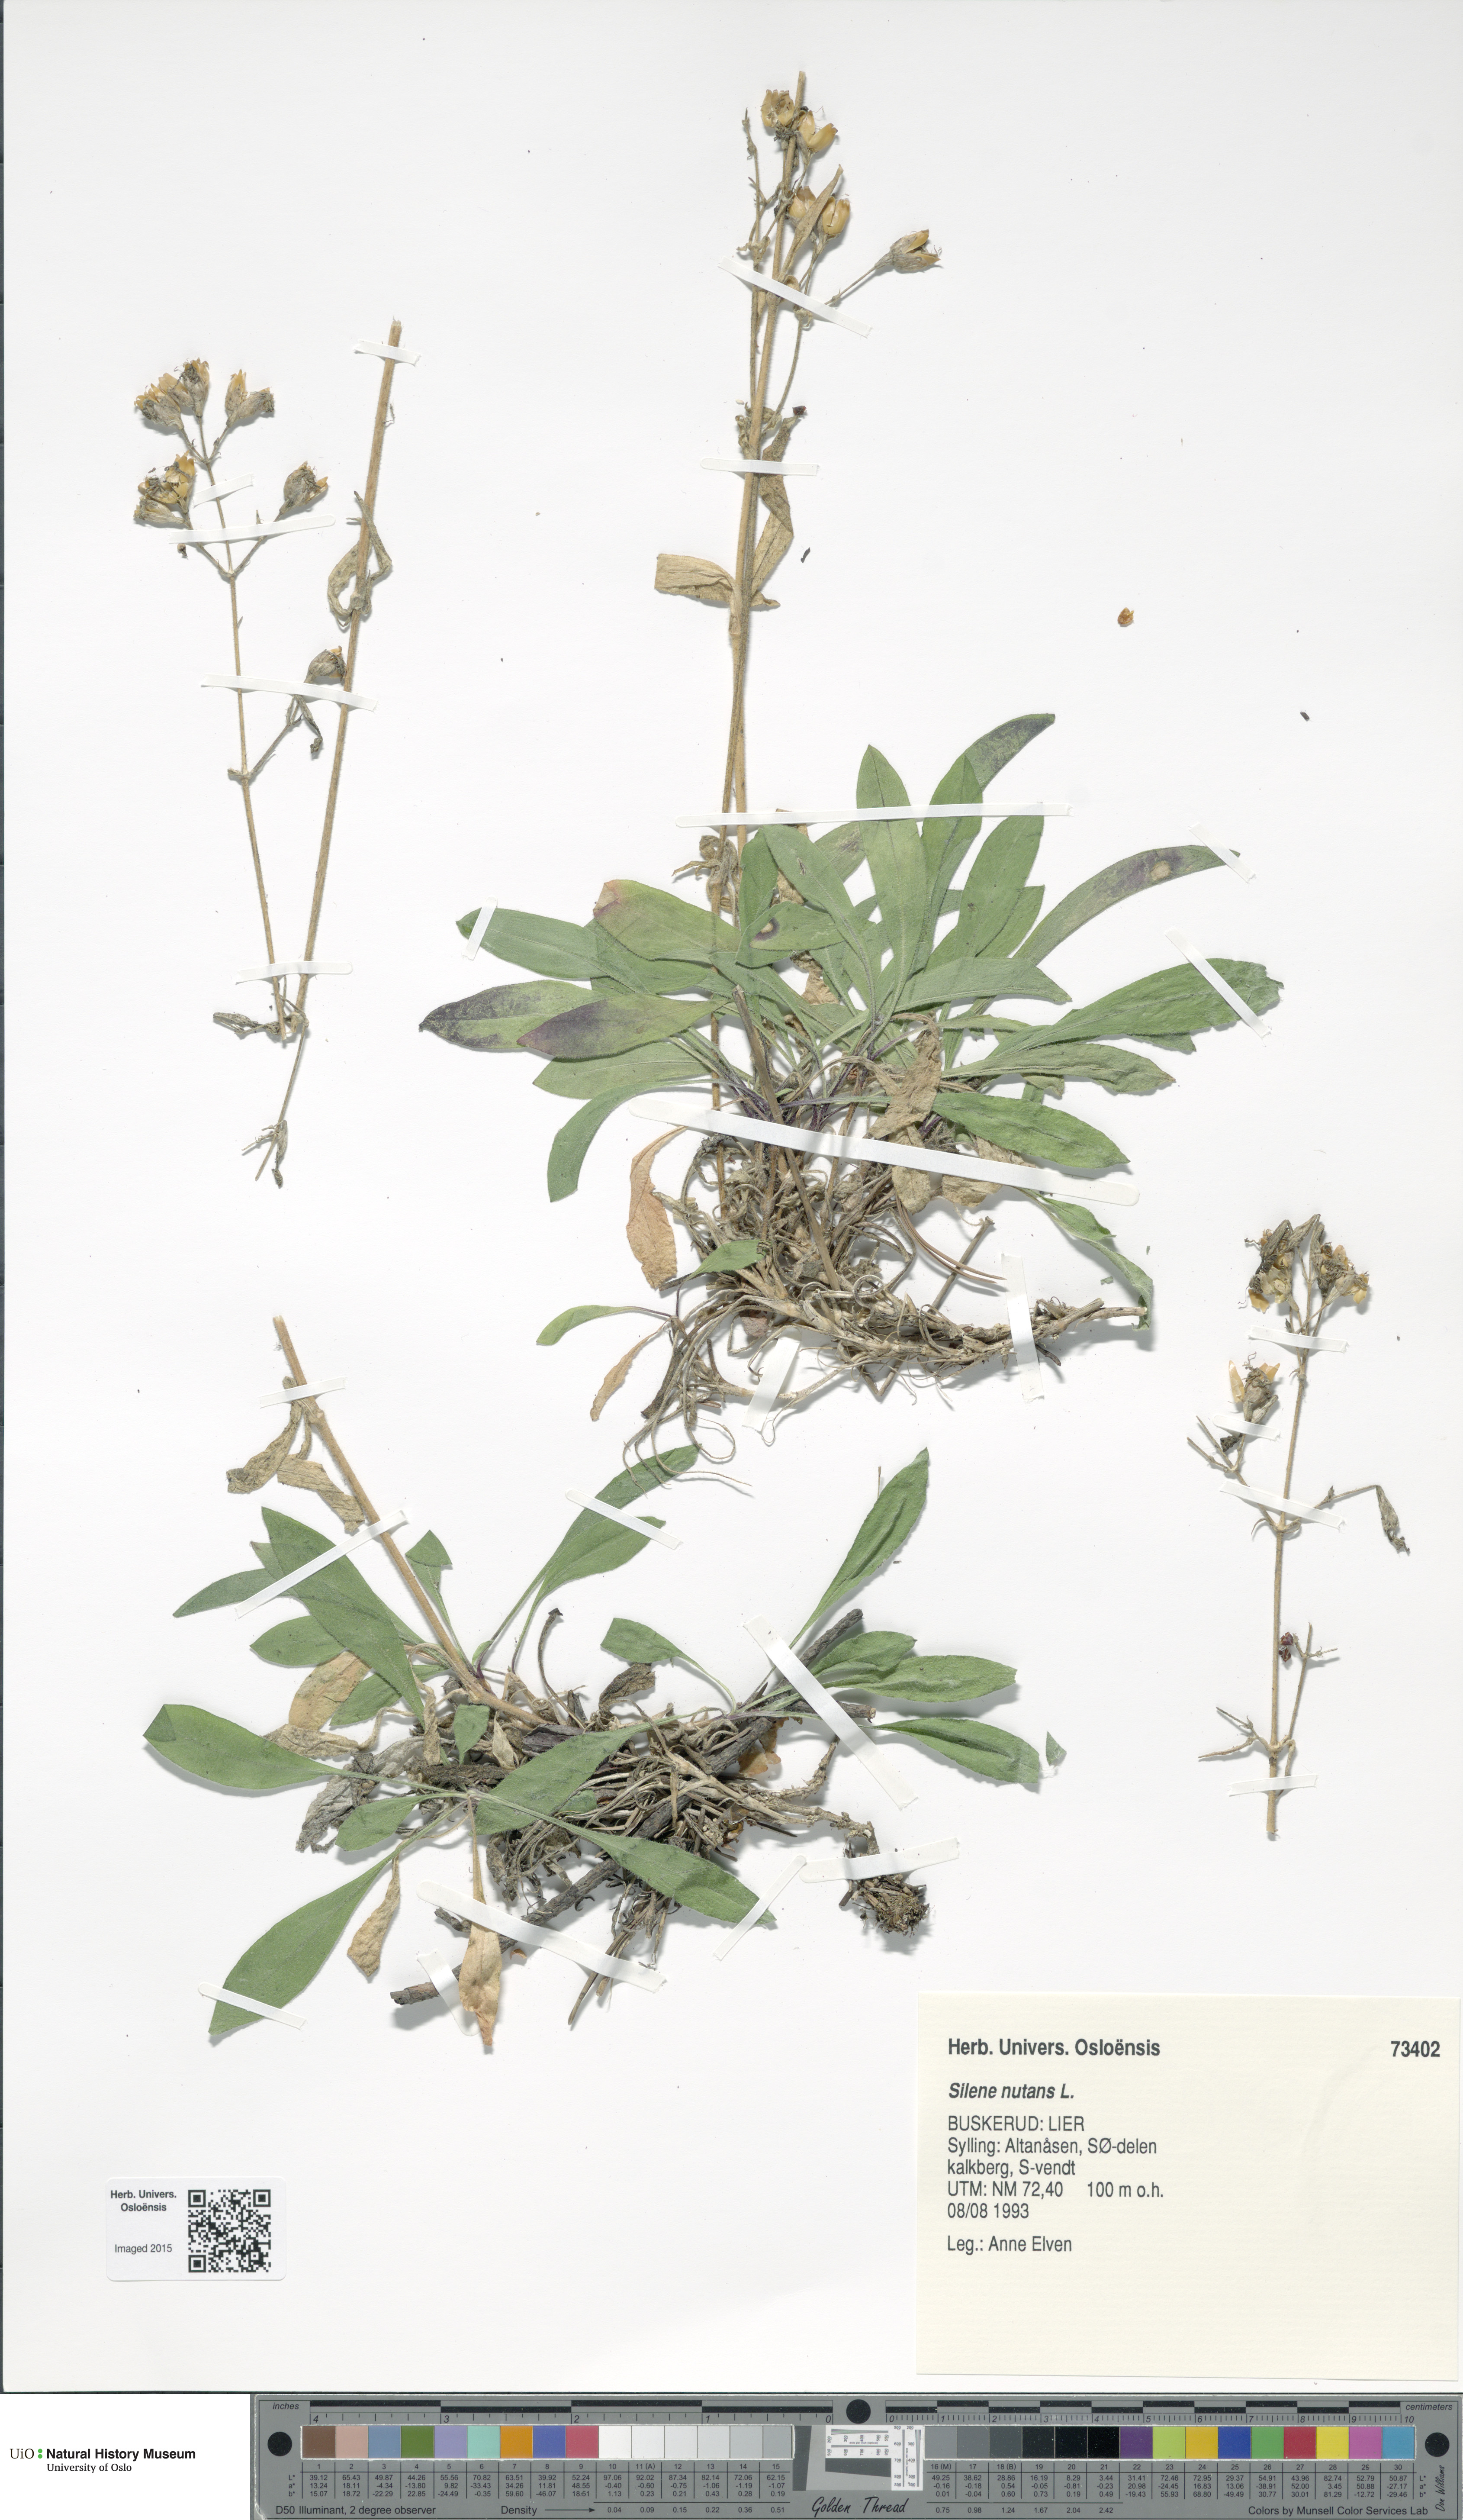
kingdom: Plantae
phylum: Tracheophyta
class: Magnoliopsida
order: Caryophyllales
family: Caryophyllaceae
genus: Silene
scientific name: Silene nutans
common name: Nottingham catchfly
